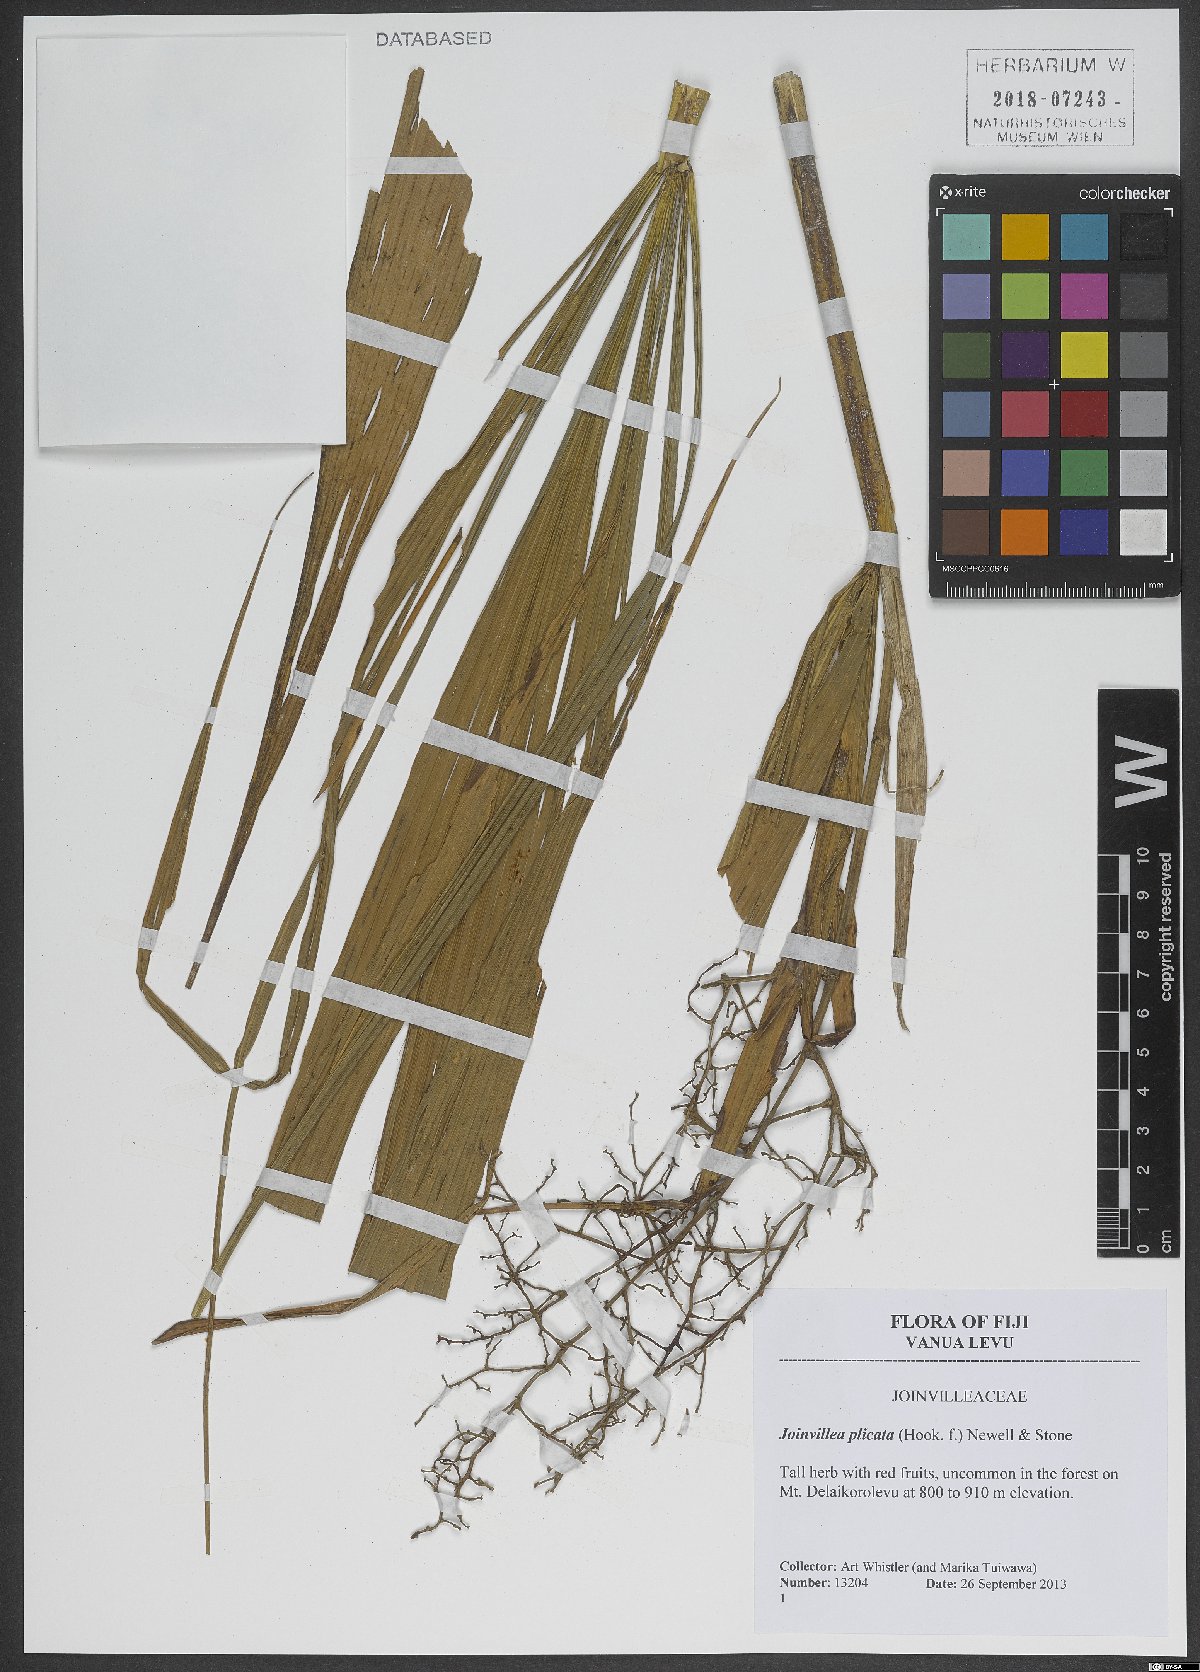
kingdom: Plantae
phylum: Tracheophyta
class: Liliopsida
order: Poales
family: Joinvilleaceae
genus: Joinvillea
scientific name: Joinvillea plicata
